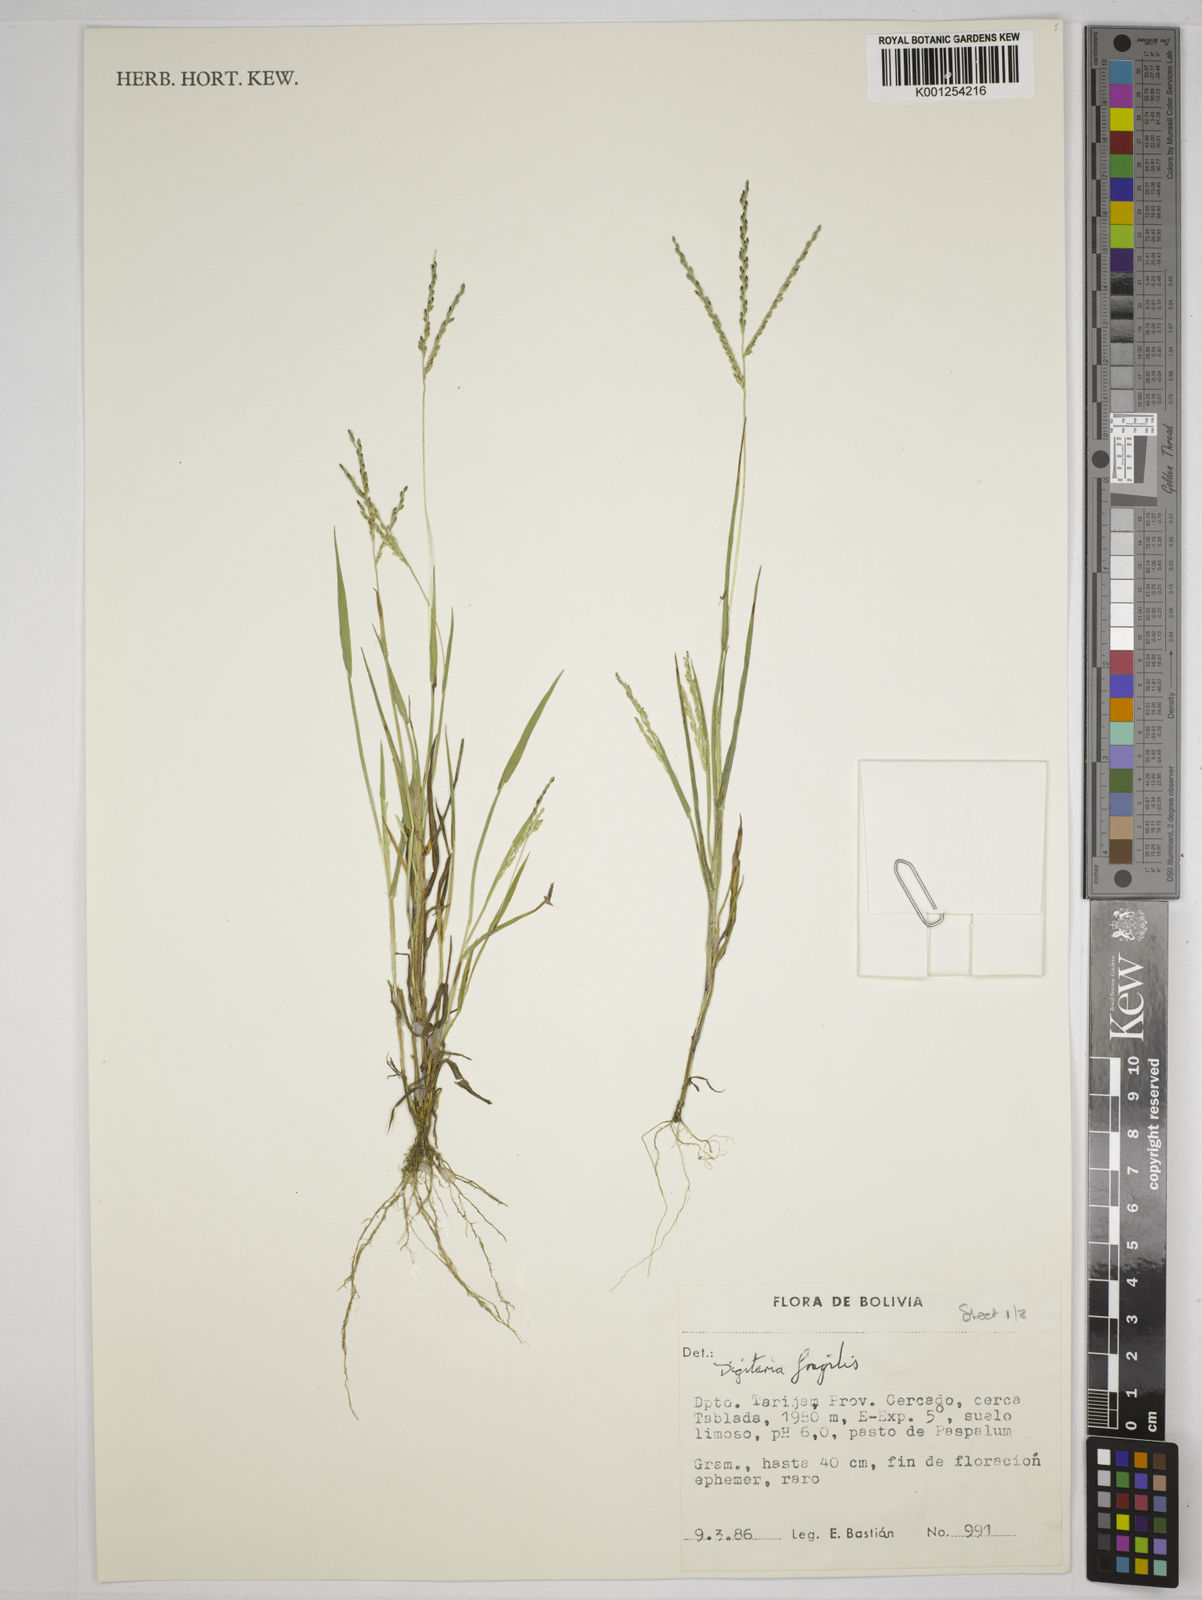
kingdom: Plantae
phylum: Tracheophyta
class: Liliopsida
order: Poales
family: Poaceae
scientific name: Poaceae
